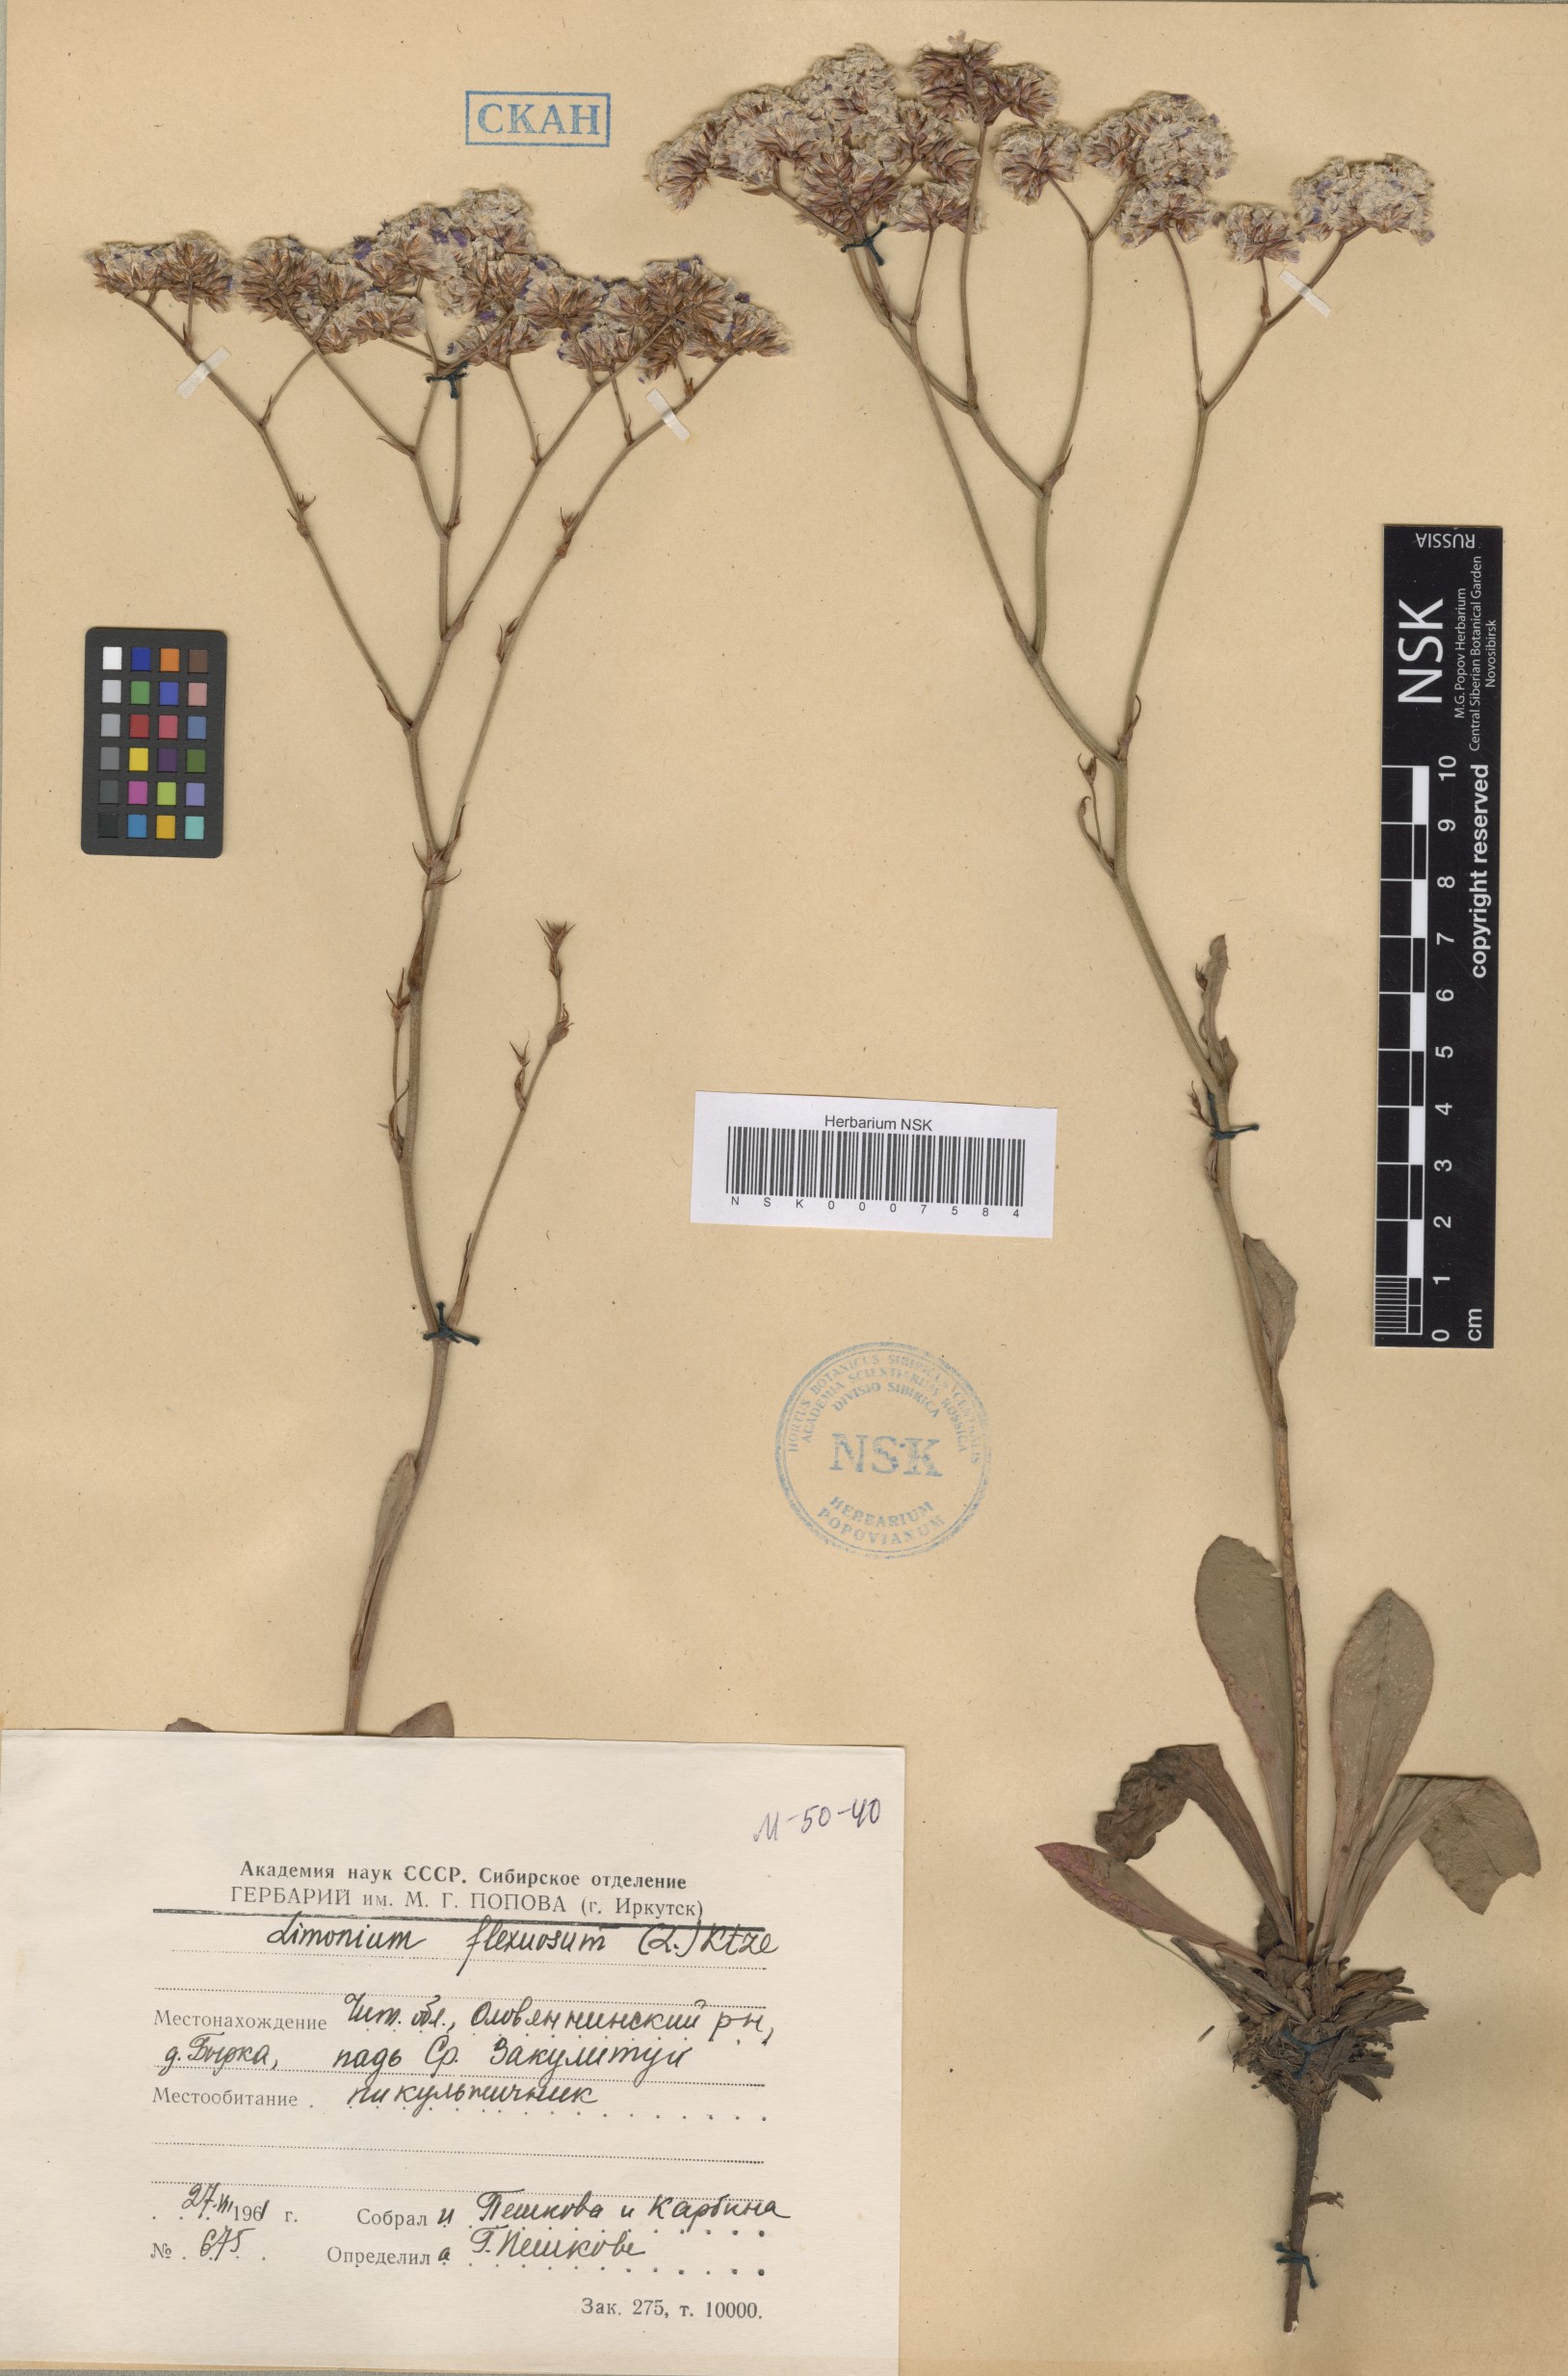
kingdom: Plantae
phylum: Tracheophyta
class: Magnoliopsida
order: Caryophyllales
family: Plumbaginaceae
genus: Limonium
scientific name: Limonium flexuosum
